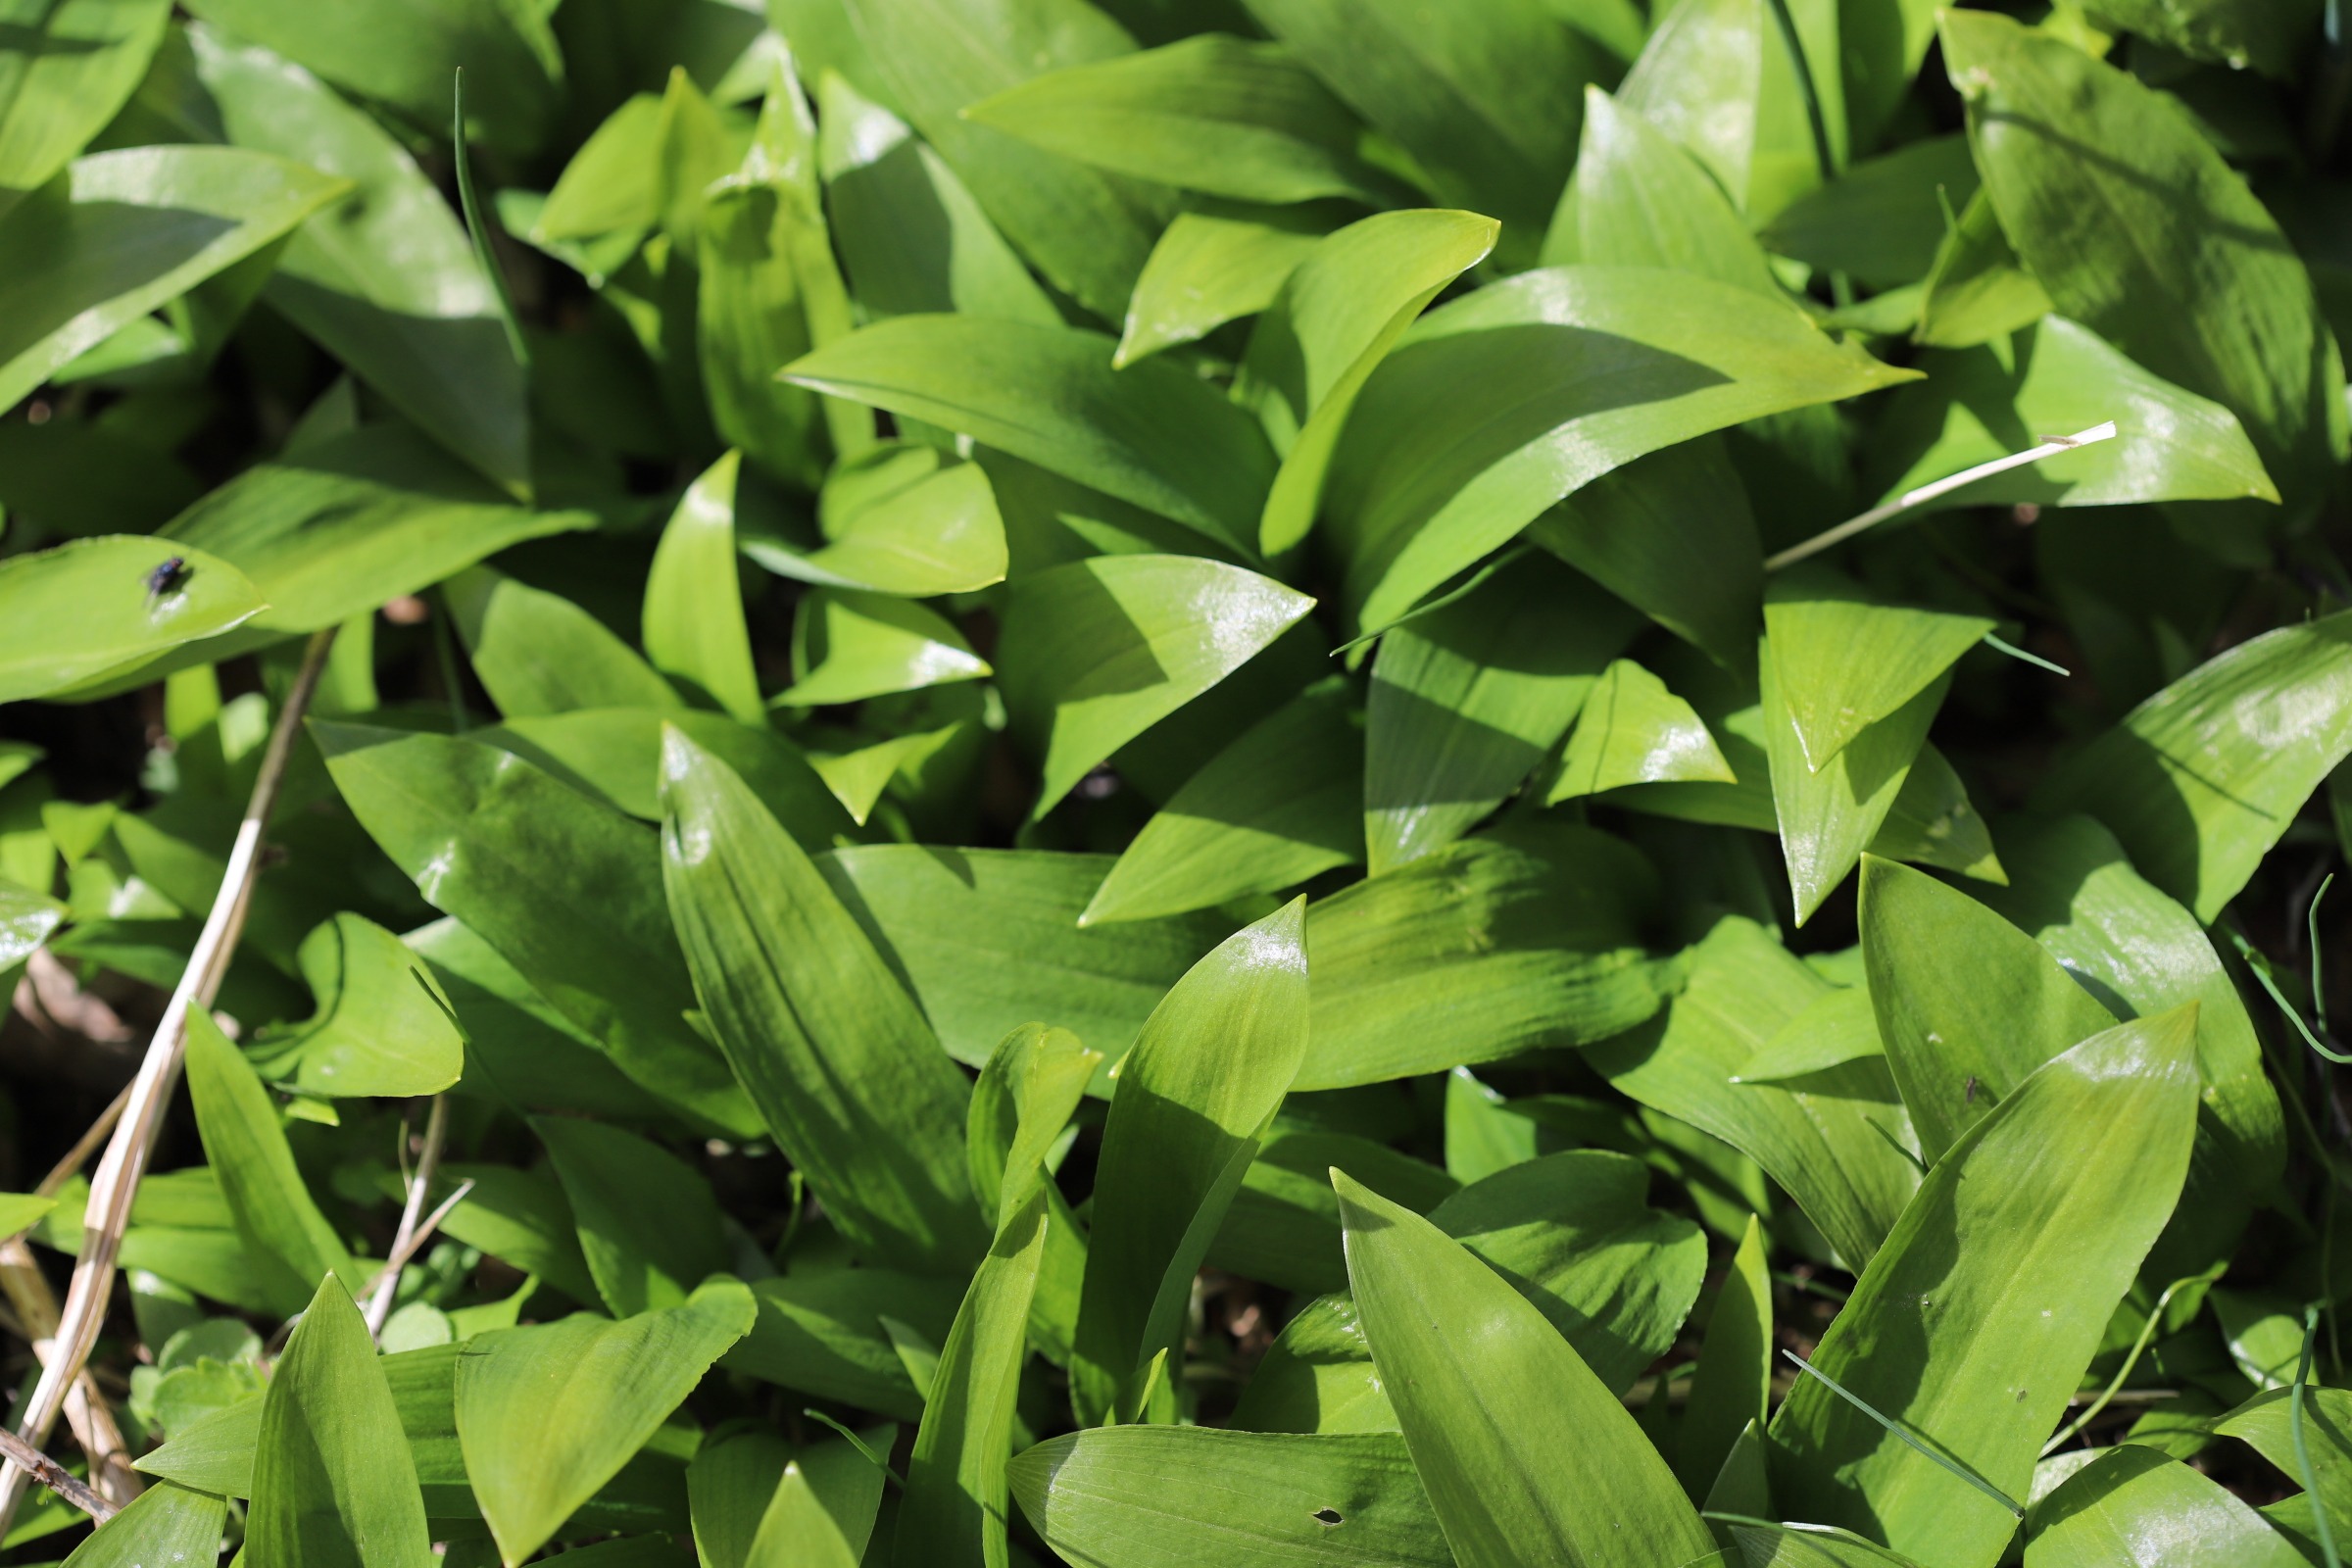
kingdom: Plantae
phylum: Tracheophyta
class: Liliopsida
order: Asparagales
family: Amaryllidaceae
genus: Allium
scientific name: Allium ursinum
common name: Rams-løg
